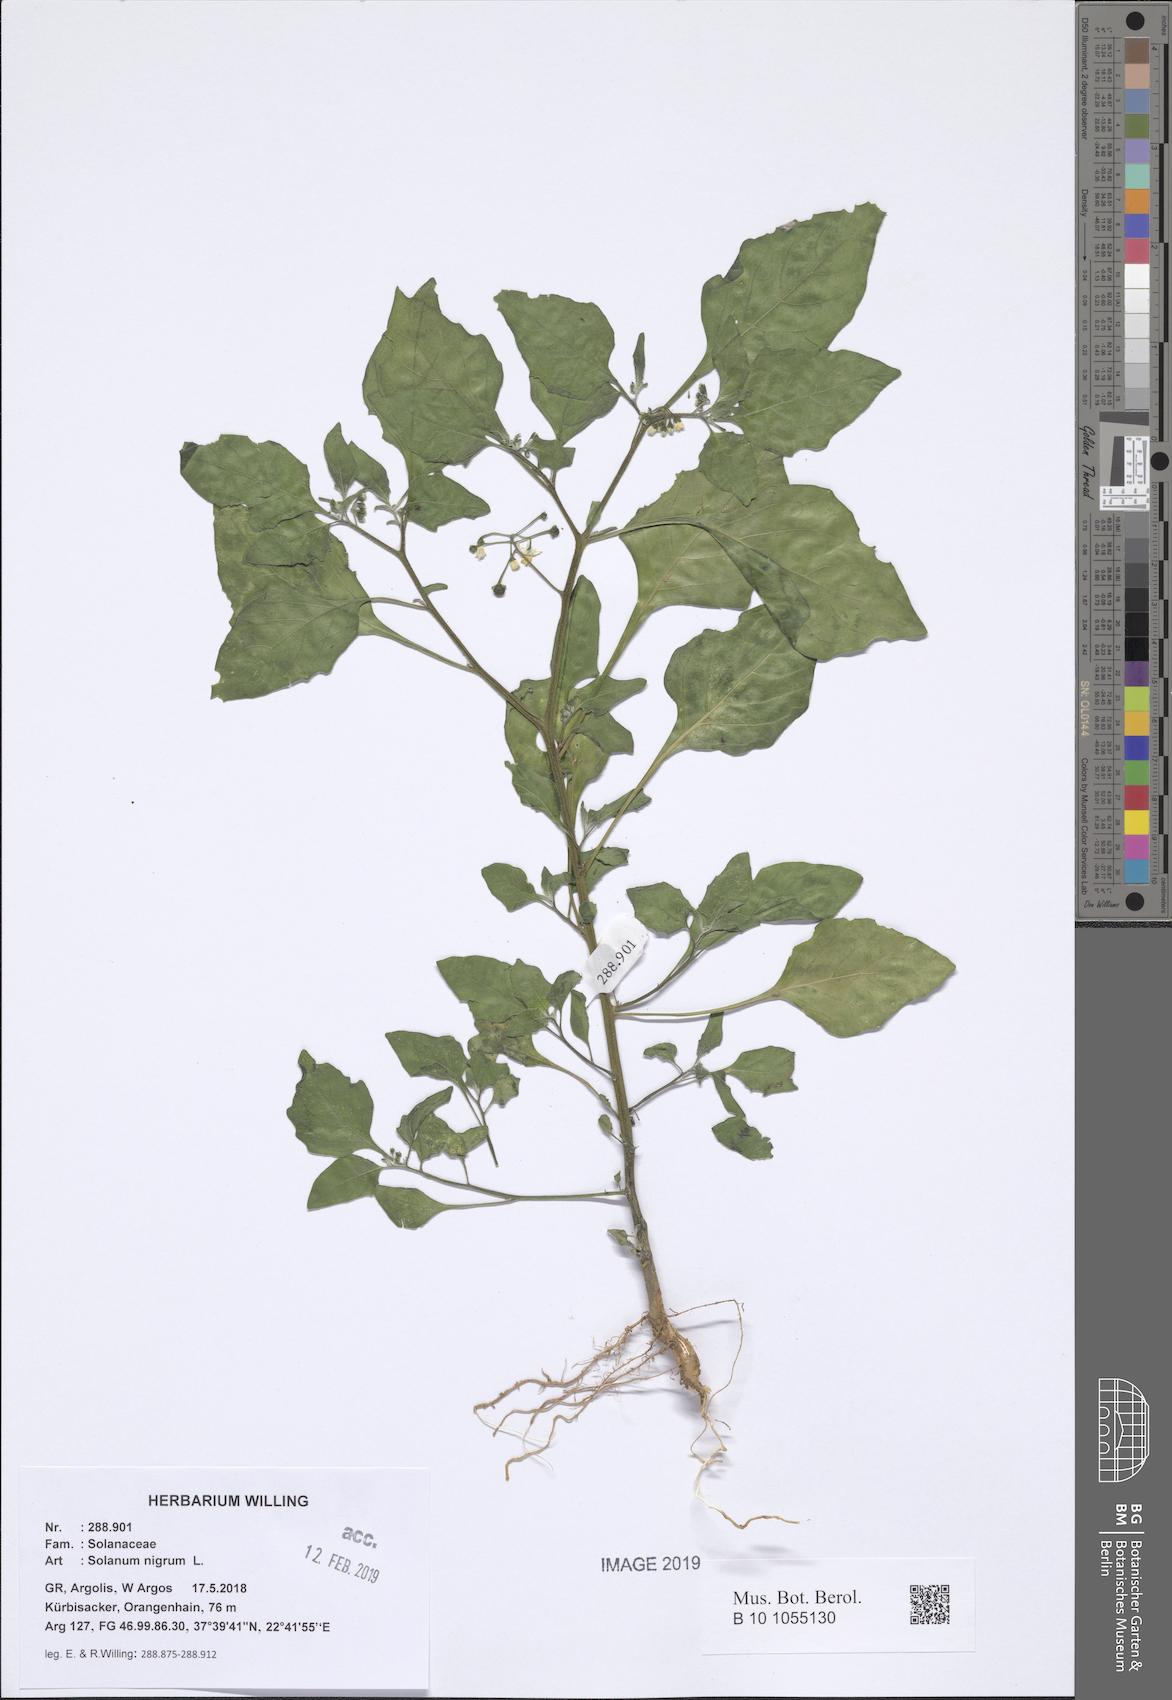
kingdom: Plantae
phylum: Tracheophyta
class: Magnoliopsida
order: Solanales
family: Solanaceae
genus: Solanum
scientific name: Solanum nigrum
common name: Black nightshade
